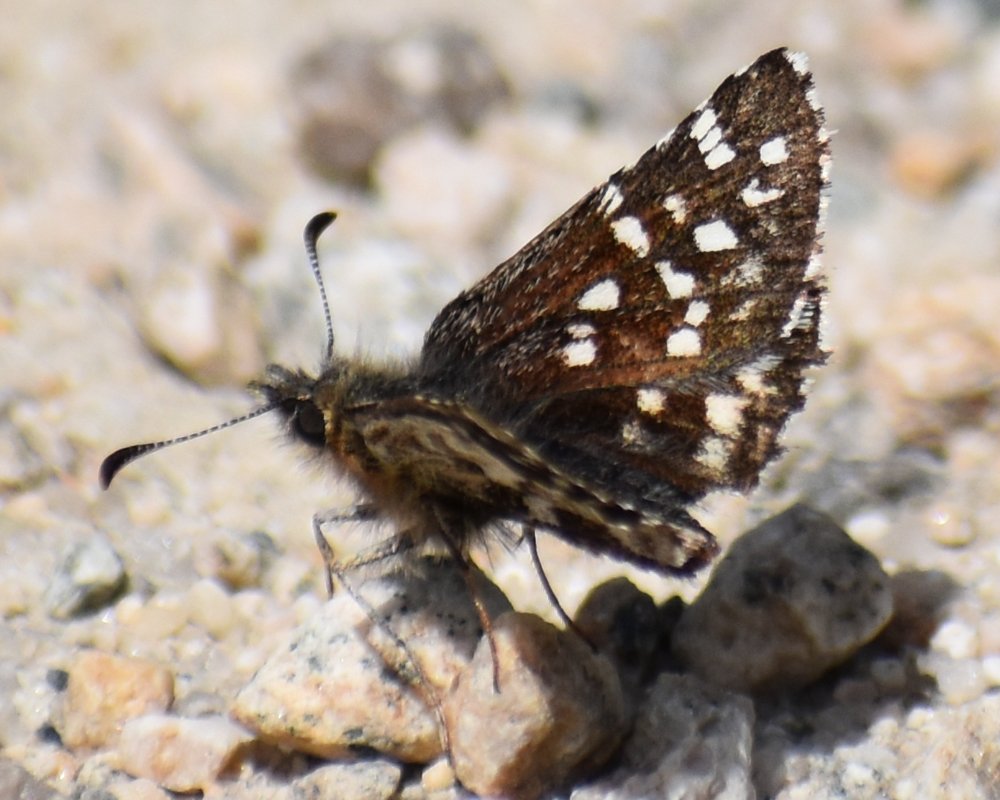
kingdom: Animalia
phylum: Arthropoda
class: Insecta
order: Lepidoptera
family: Hesperiidae
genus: Pyrgus
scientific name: Pyrgus ruralis
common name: Two-banded Checkered-Skipper
